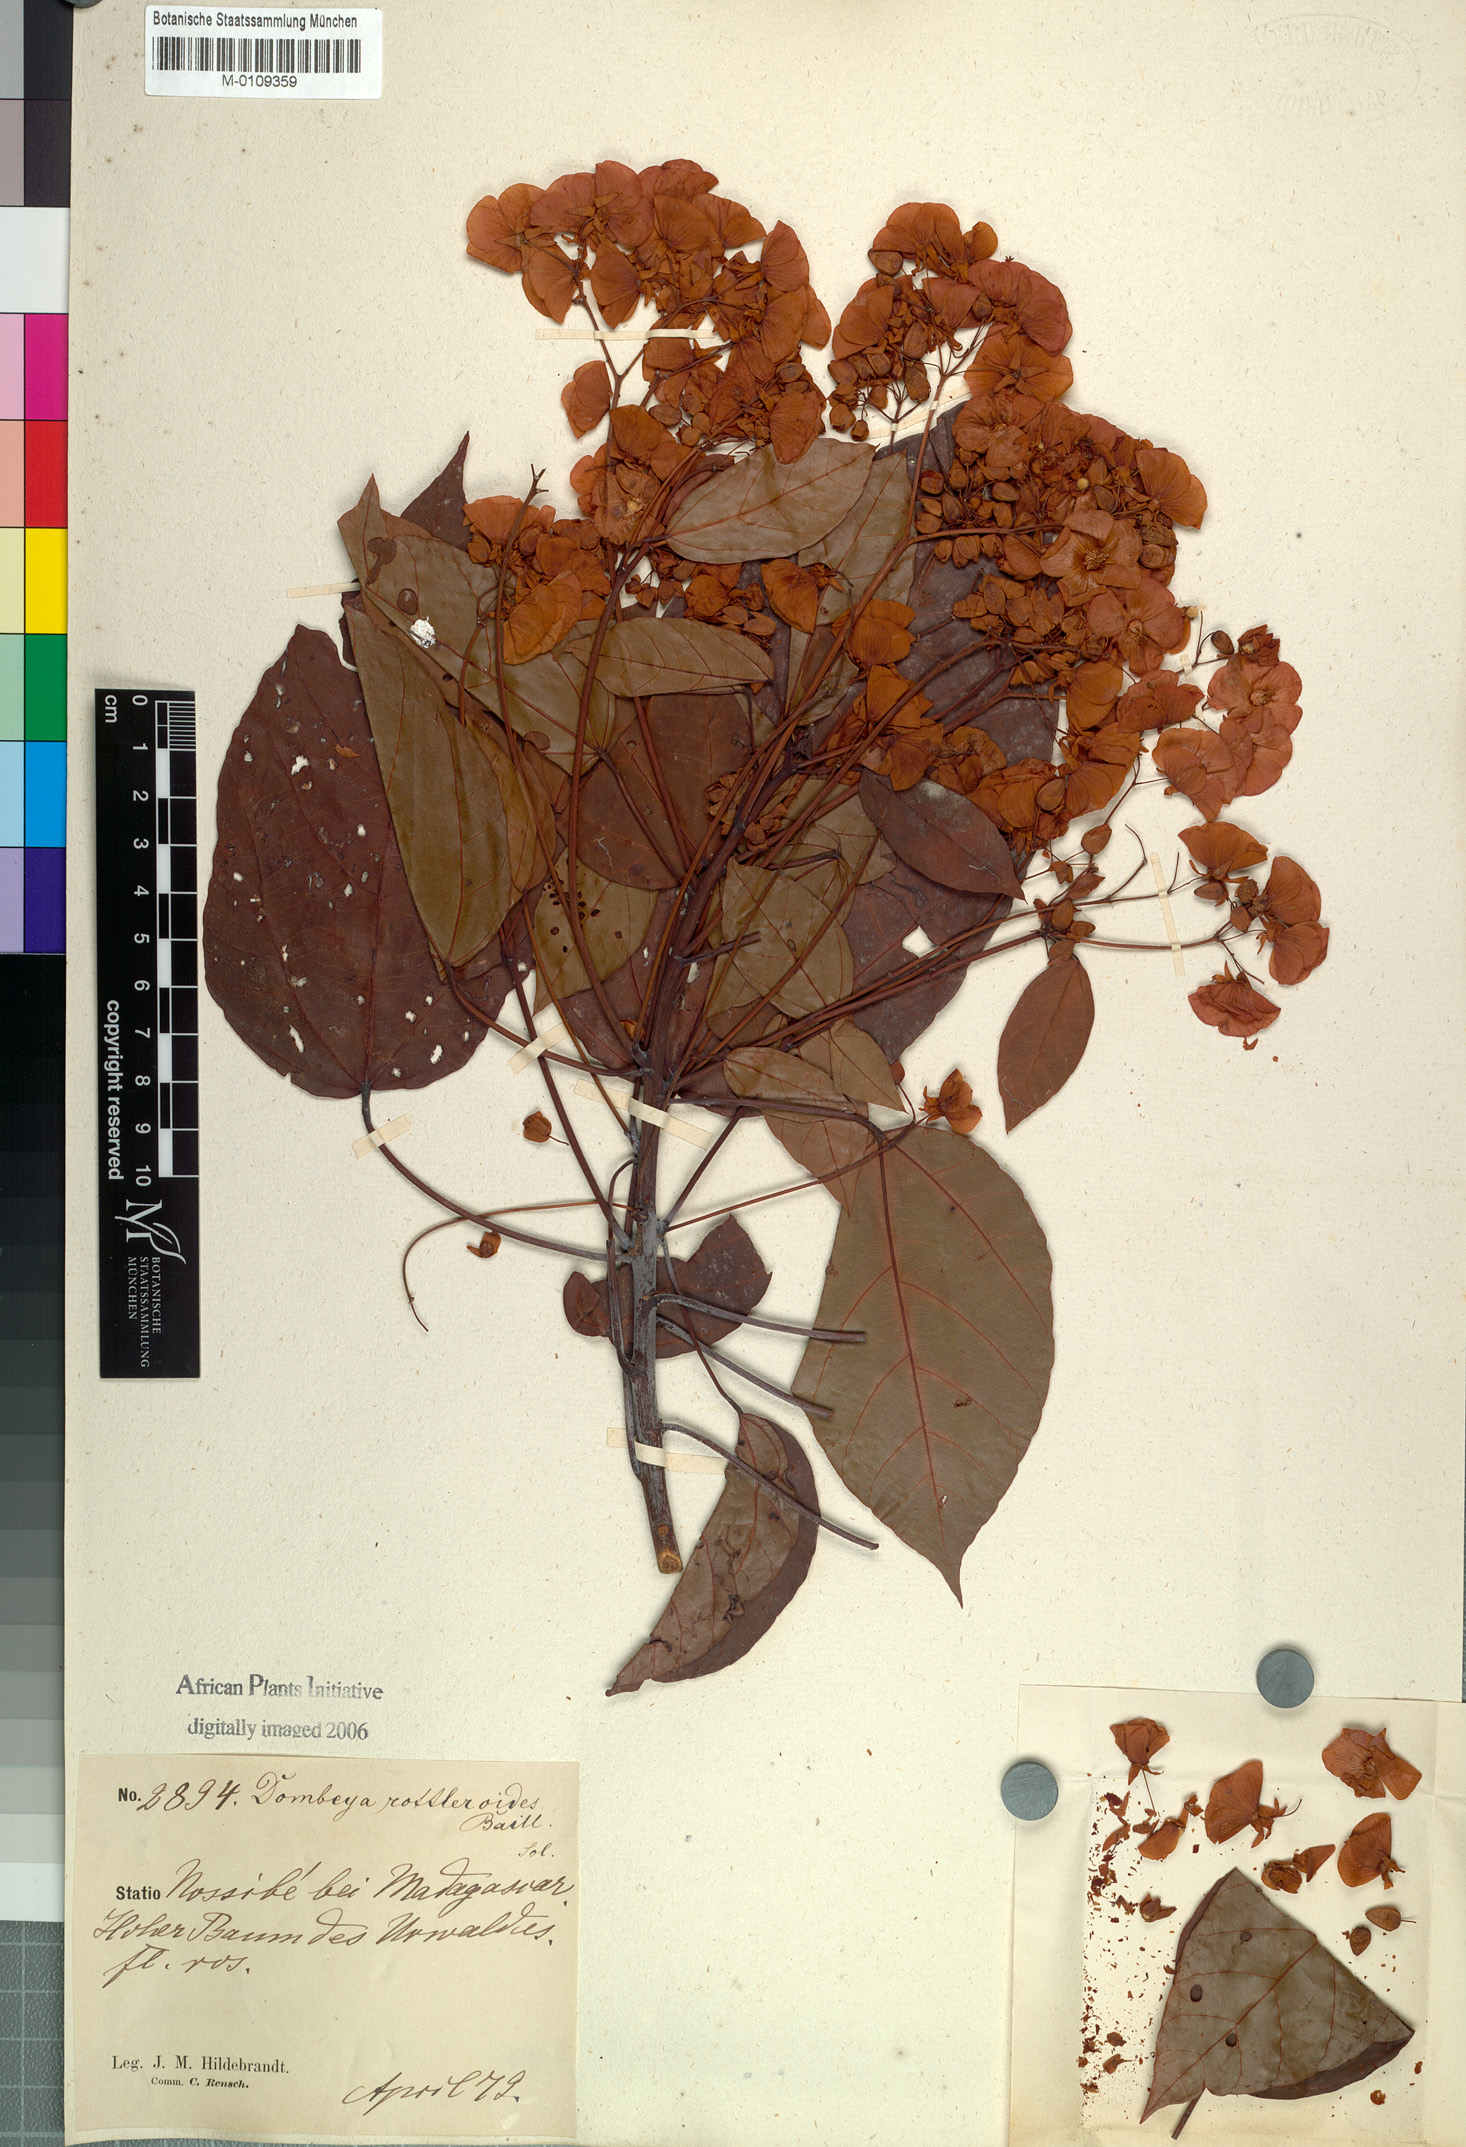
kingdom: Plantae
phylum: Tracheophyta
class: Magnoliopsida
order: Malvales
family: Malvaceae
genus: Dombeya
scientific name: Dombeya rottleroides
